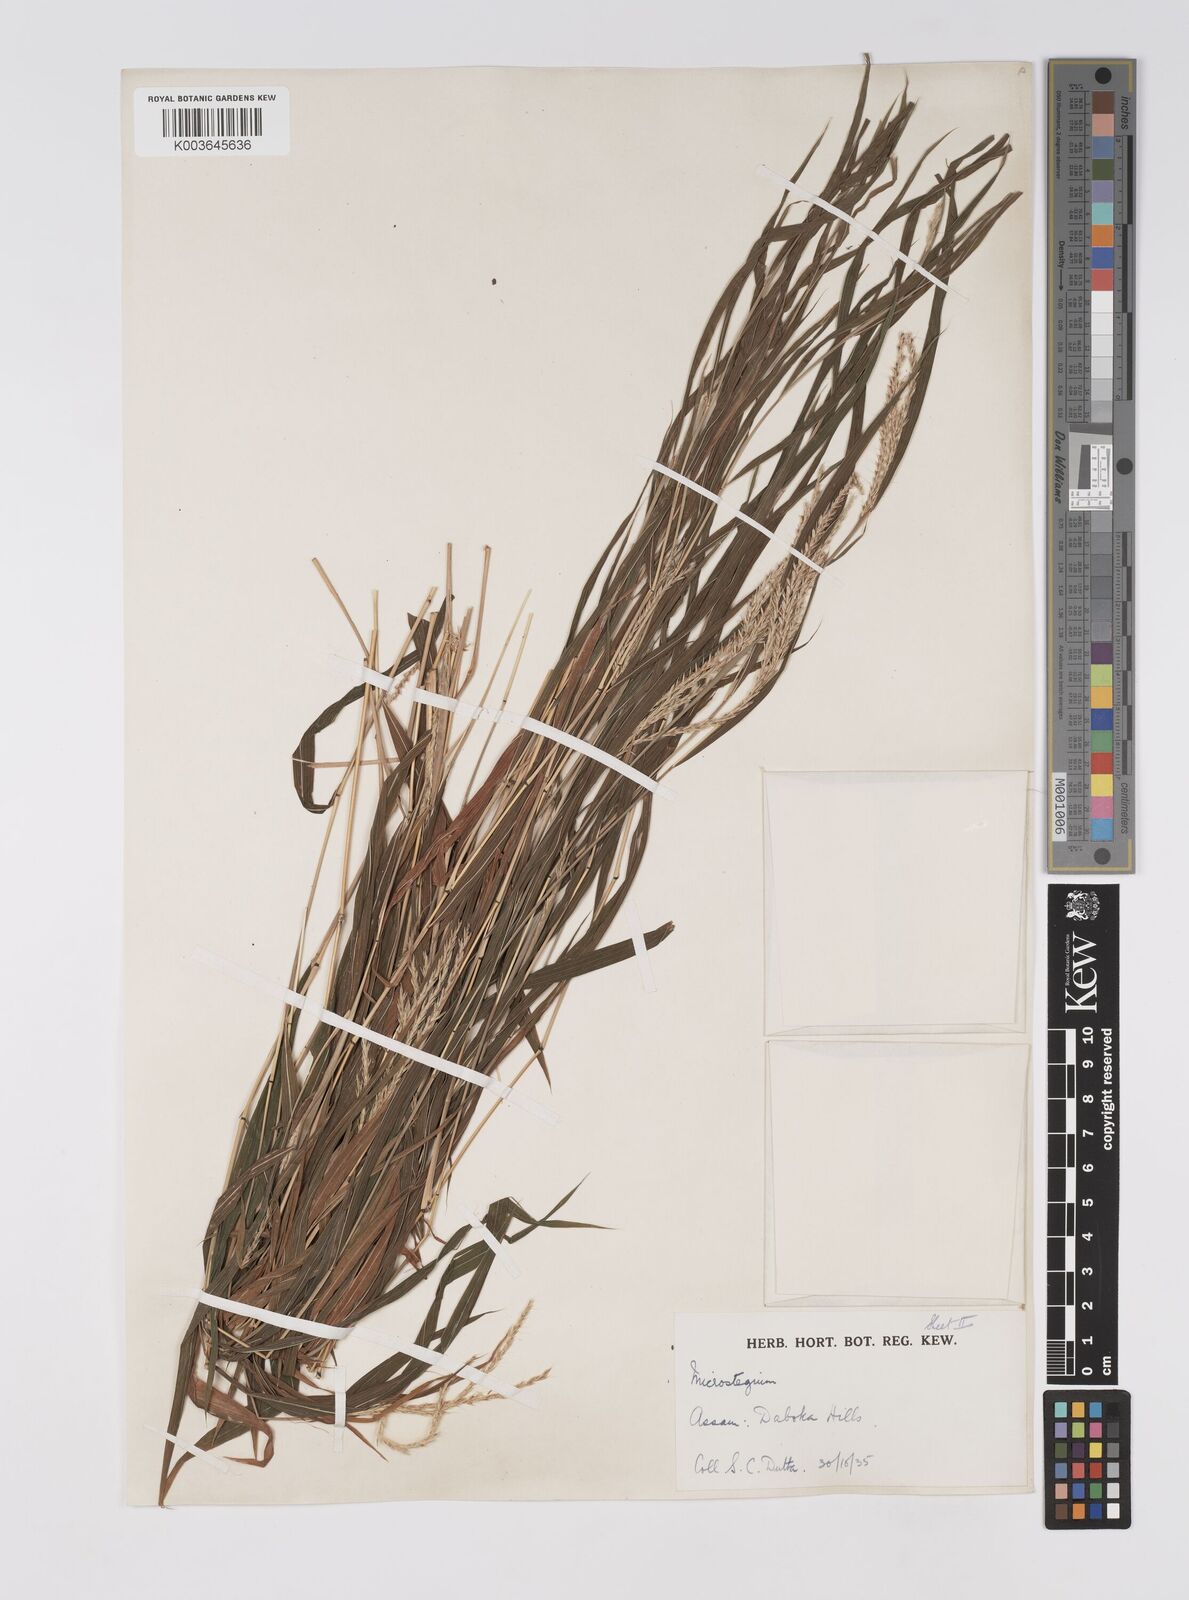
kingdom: Plantae
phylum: Tracheophyta
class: Liliopsida
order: Poales
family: Poaceae
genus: Microstegium
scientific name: Microstegium fasciculatum
